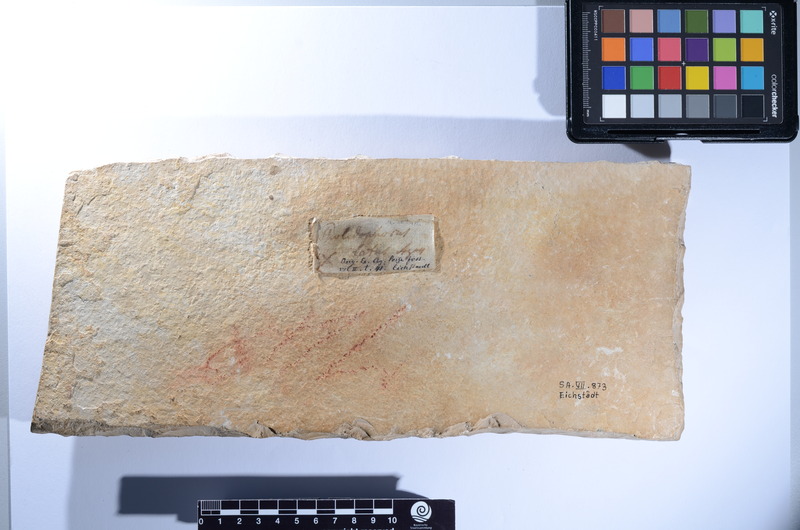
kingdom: Animalia
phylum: Chordata
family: Ankylophoridae
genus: Siemensichthys
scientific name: Siemensichthys macrocephalus
